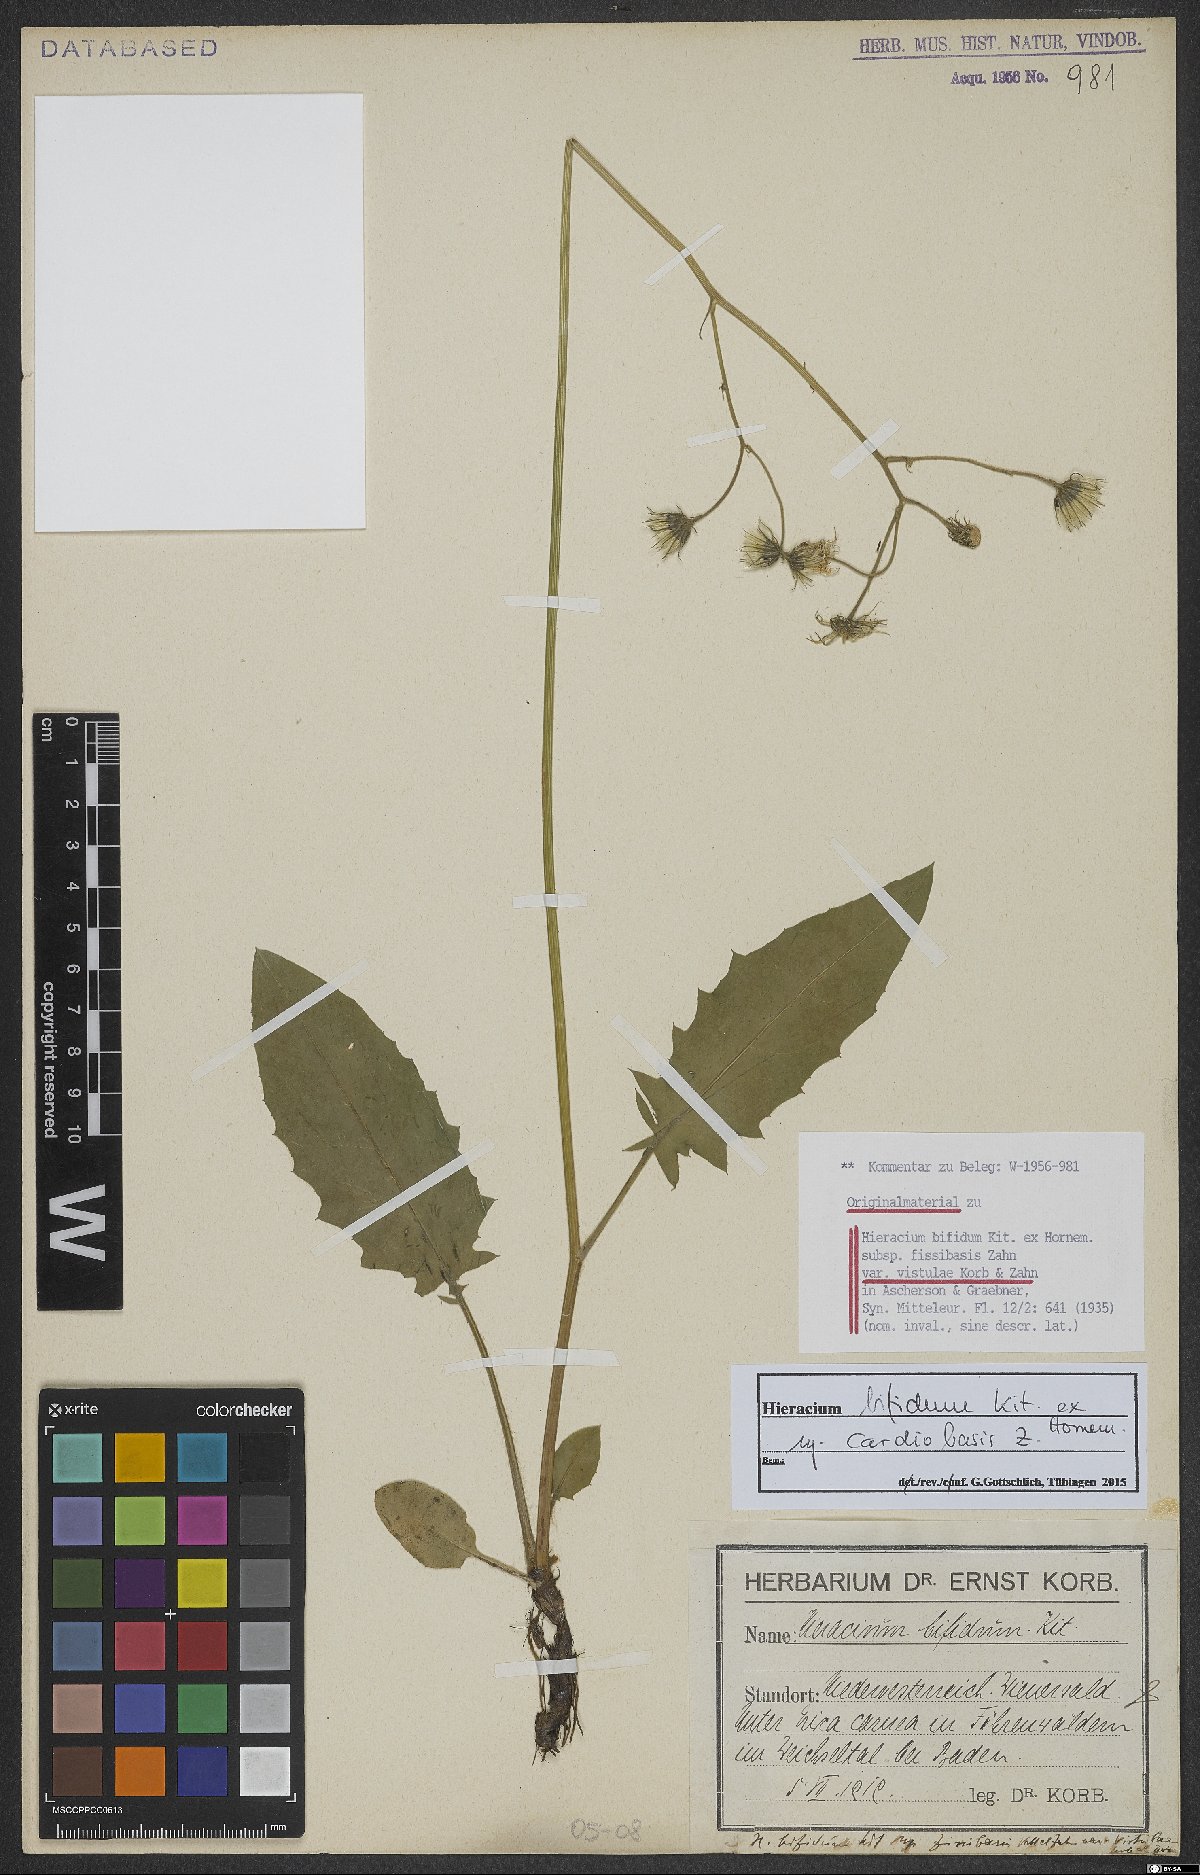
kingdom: Plantae
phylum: Tracheophyta
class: Magnoliopsida
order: Asterales
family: Asteraceae
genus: Hieracium
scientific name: Hieracium bifidum
